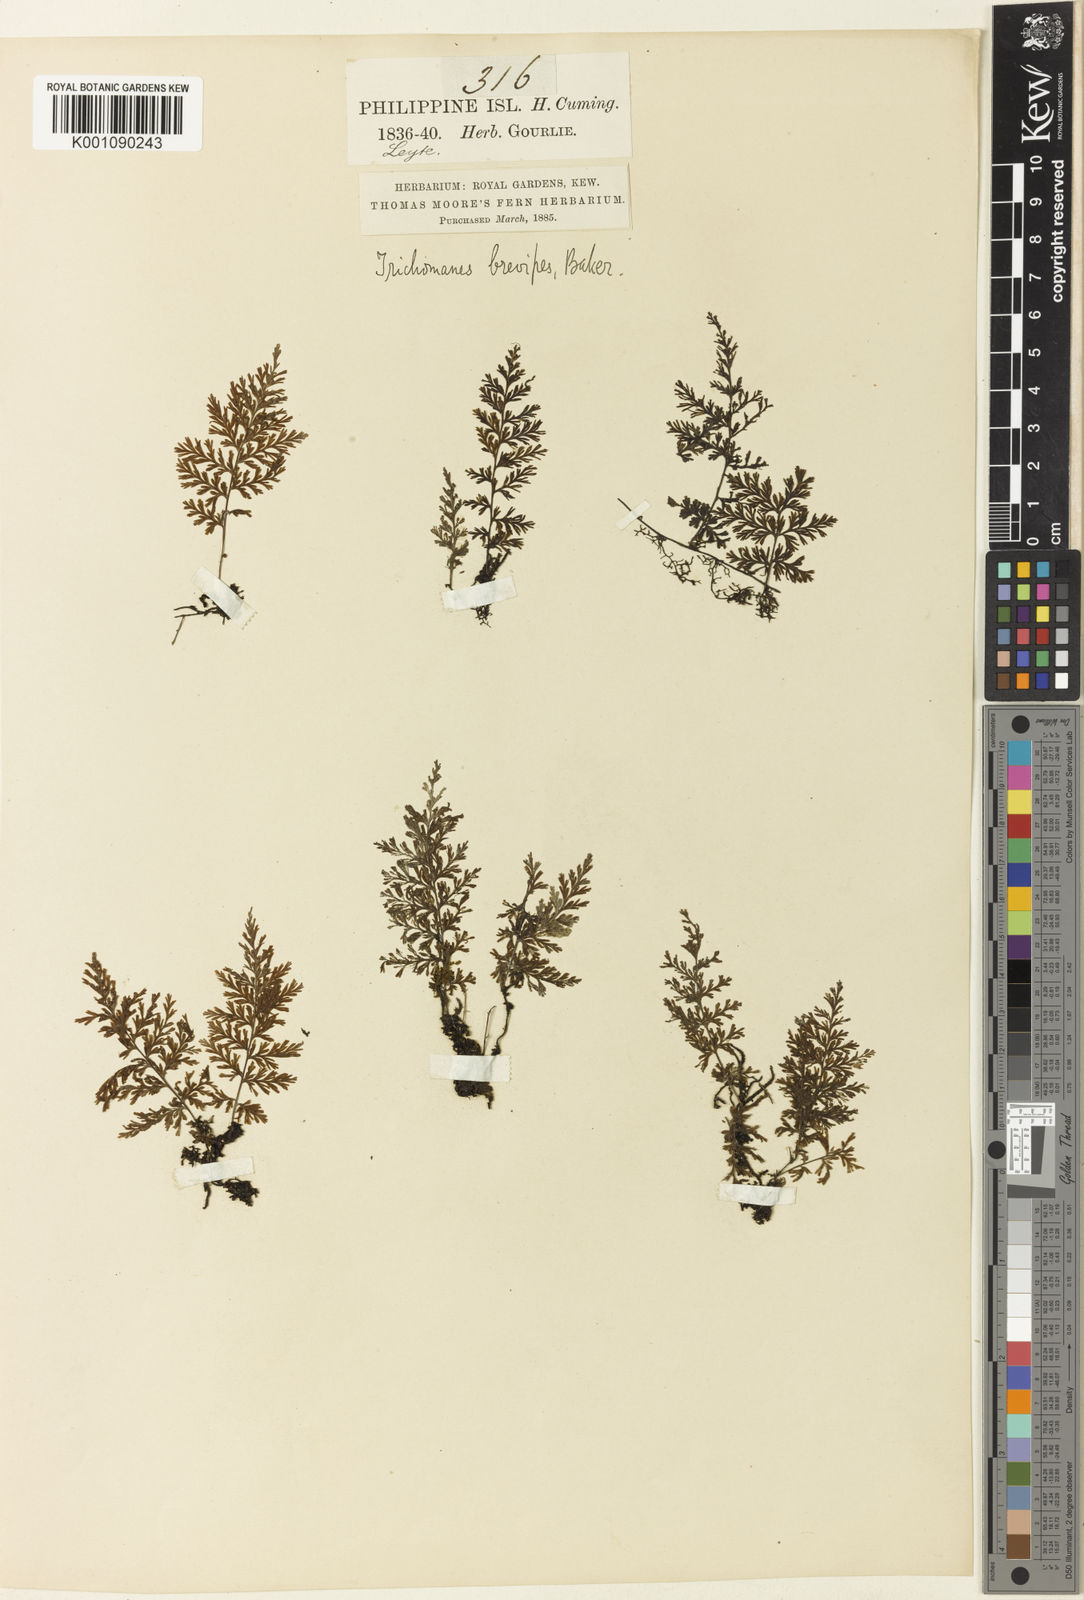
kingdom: Plantae
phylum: Tracheophyta
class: Polypodiopsida
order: Hymenophyllales
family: Hymenophyllaceae
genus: Crepidomanes
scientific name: Crepidomanes brevipes
